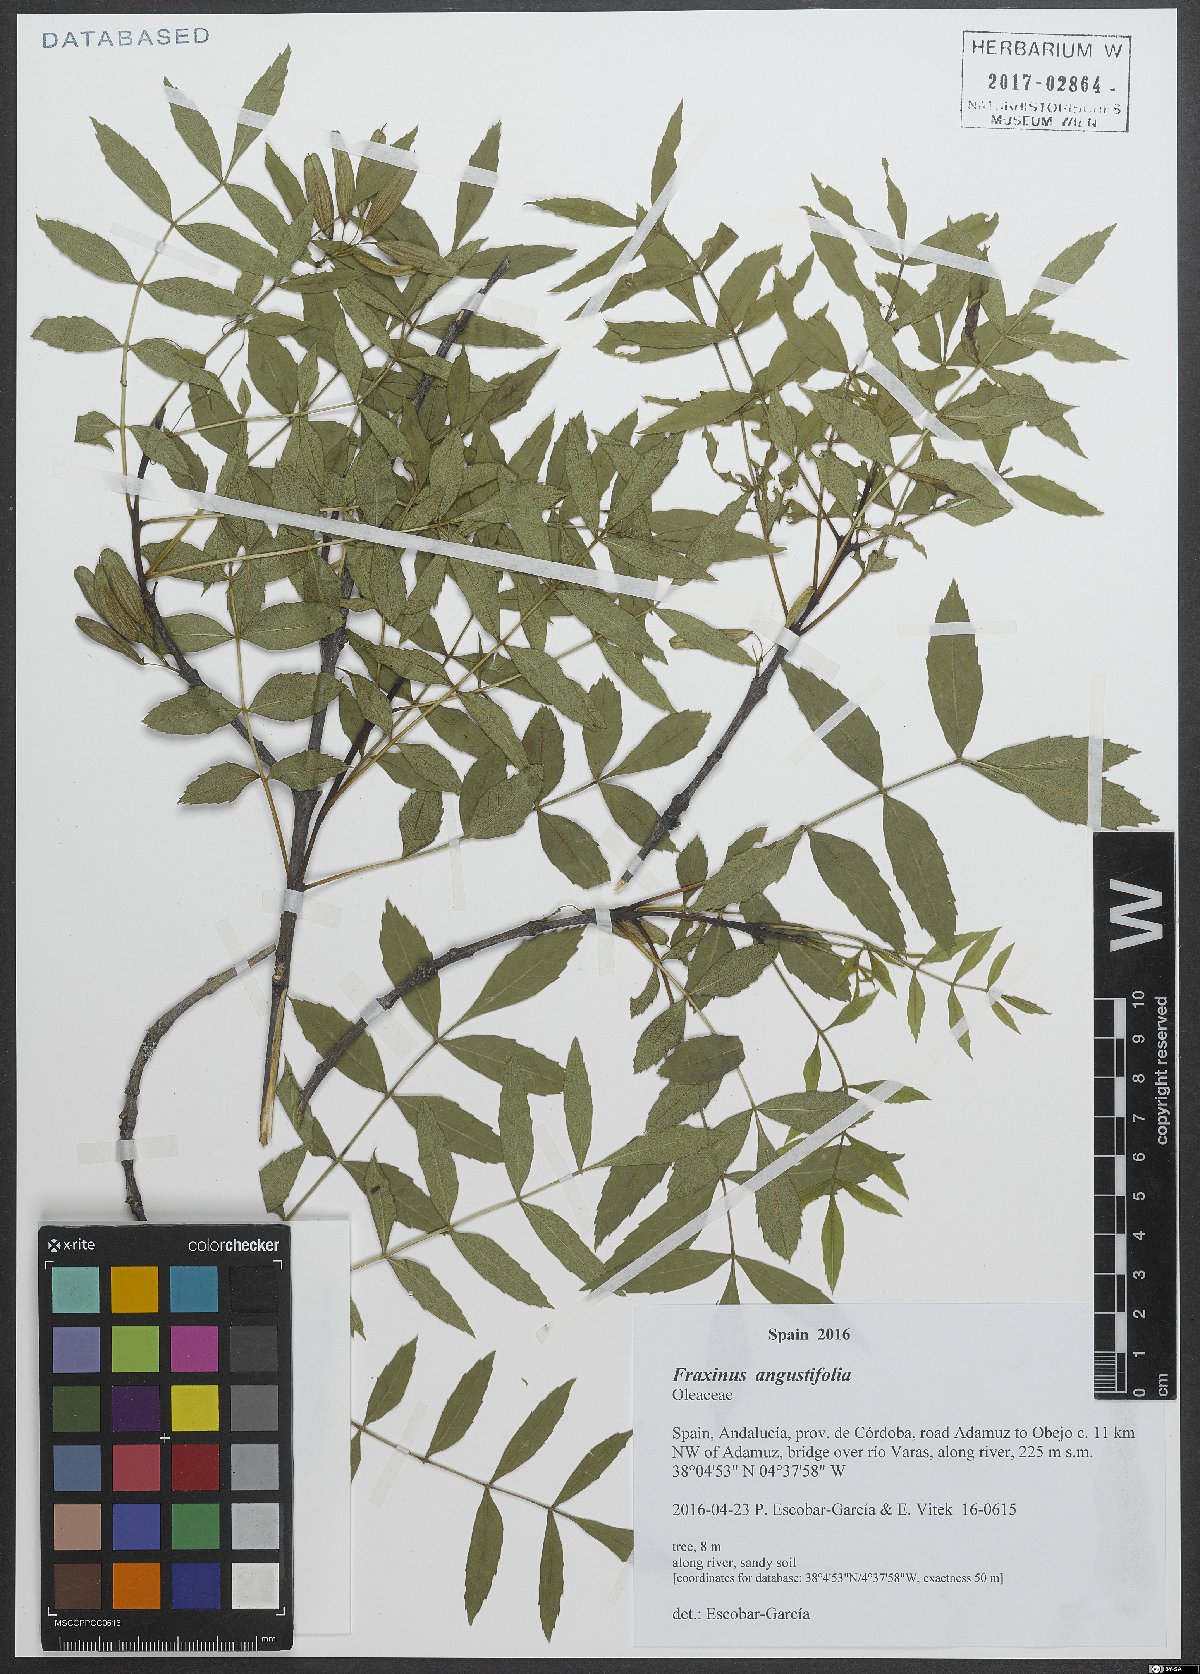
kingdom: Plantae
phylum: Tracheophyta
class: Magnoliopsida
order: Lamiales
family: Oleaceae
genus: Fraxinus
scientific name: Fraxinus angustifolia
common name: Narrow-leafed ash
